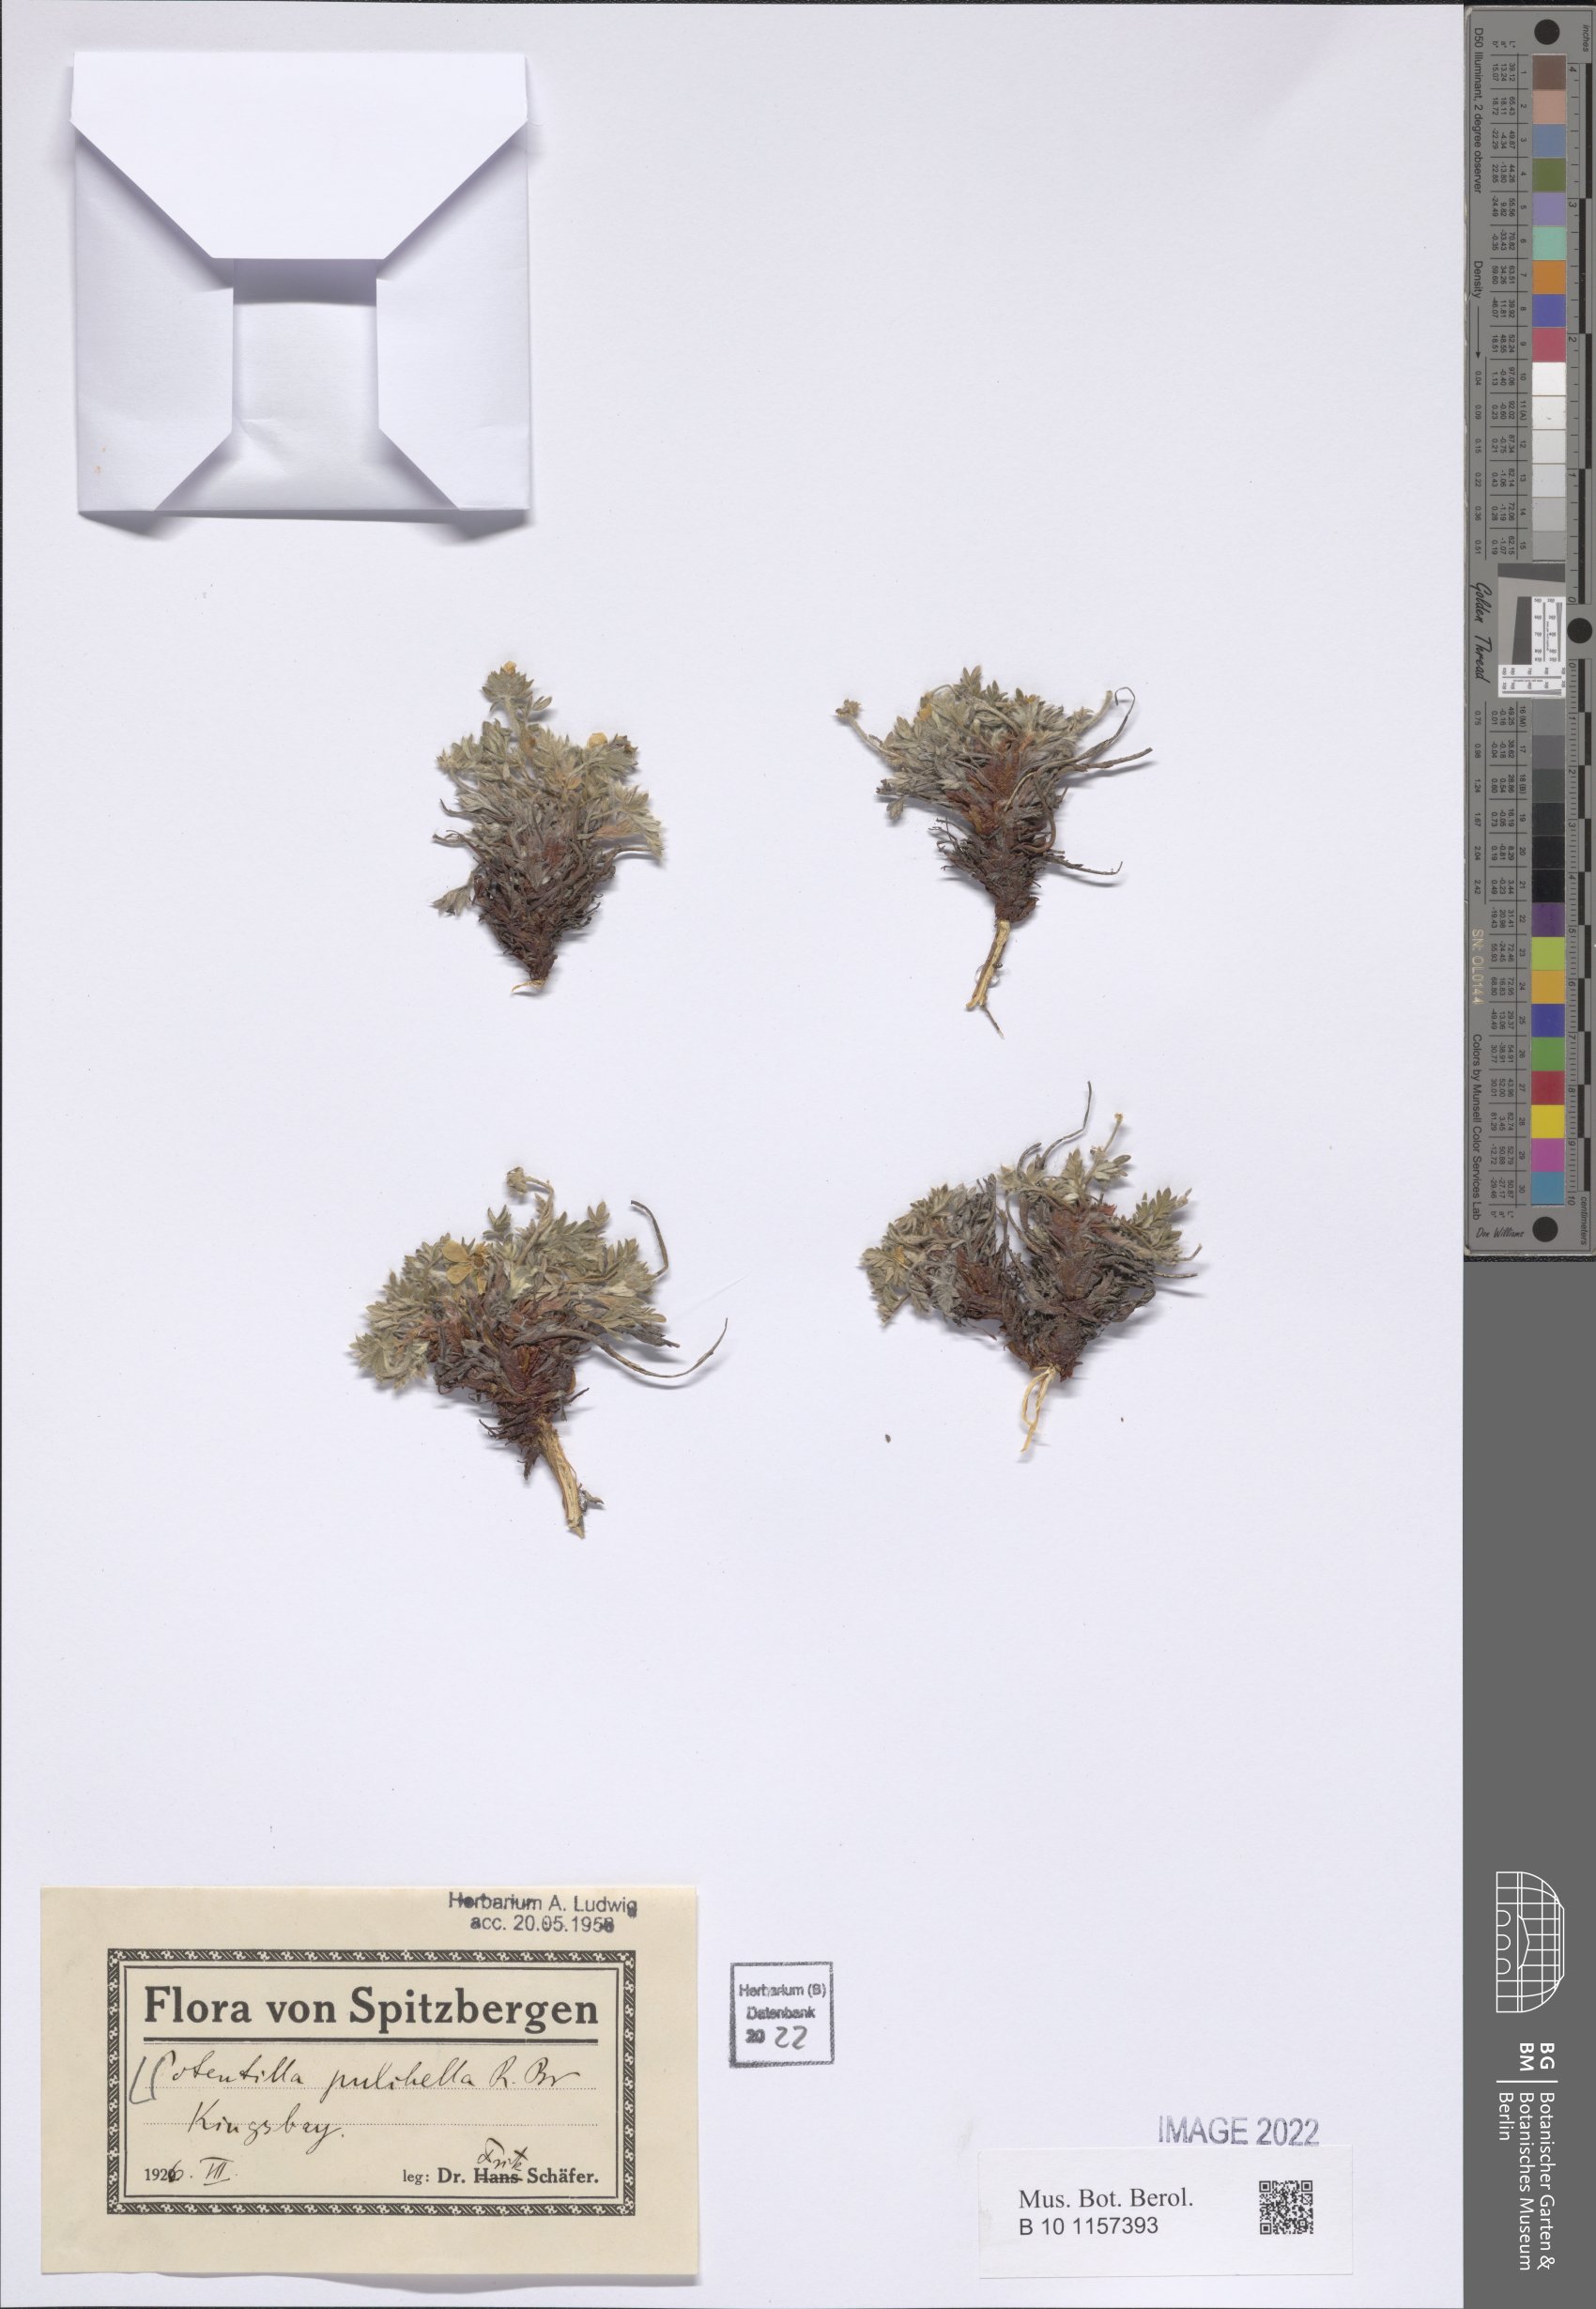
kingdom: Plantae
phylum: Tracheophyta
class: Magnoliopsida
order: Rosales
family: Rosaceae
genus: Potentilla
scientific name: Potentilla pulchella
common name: Pretty cinquefoil
